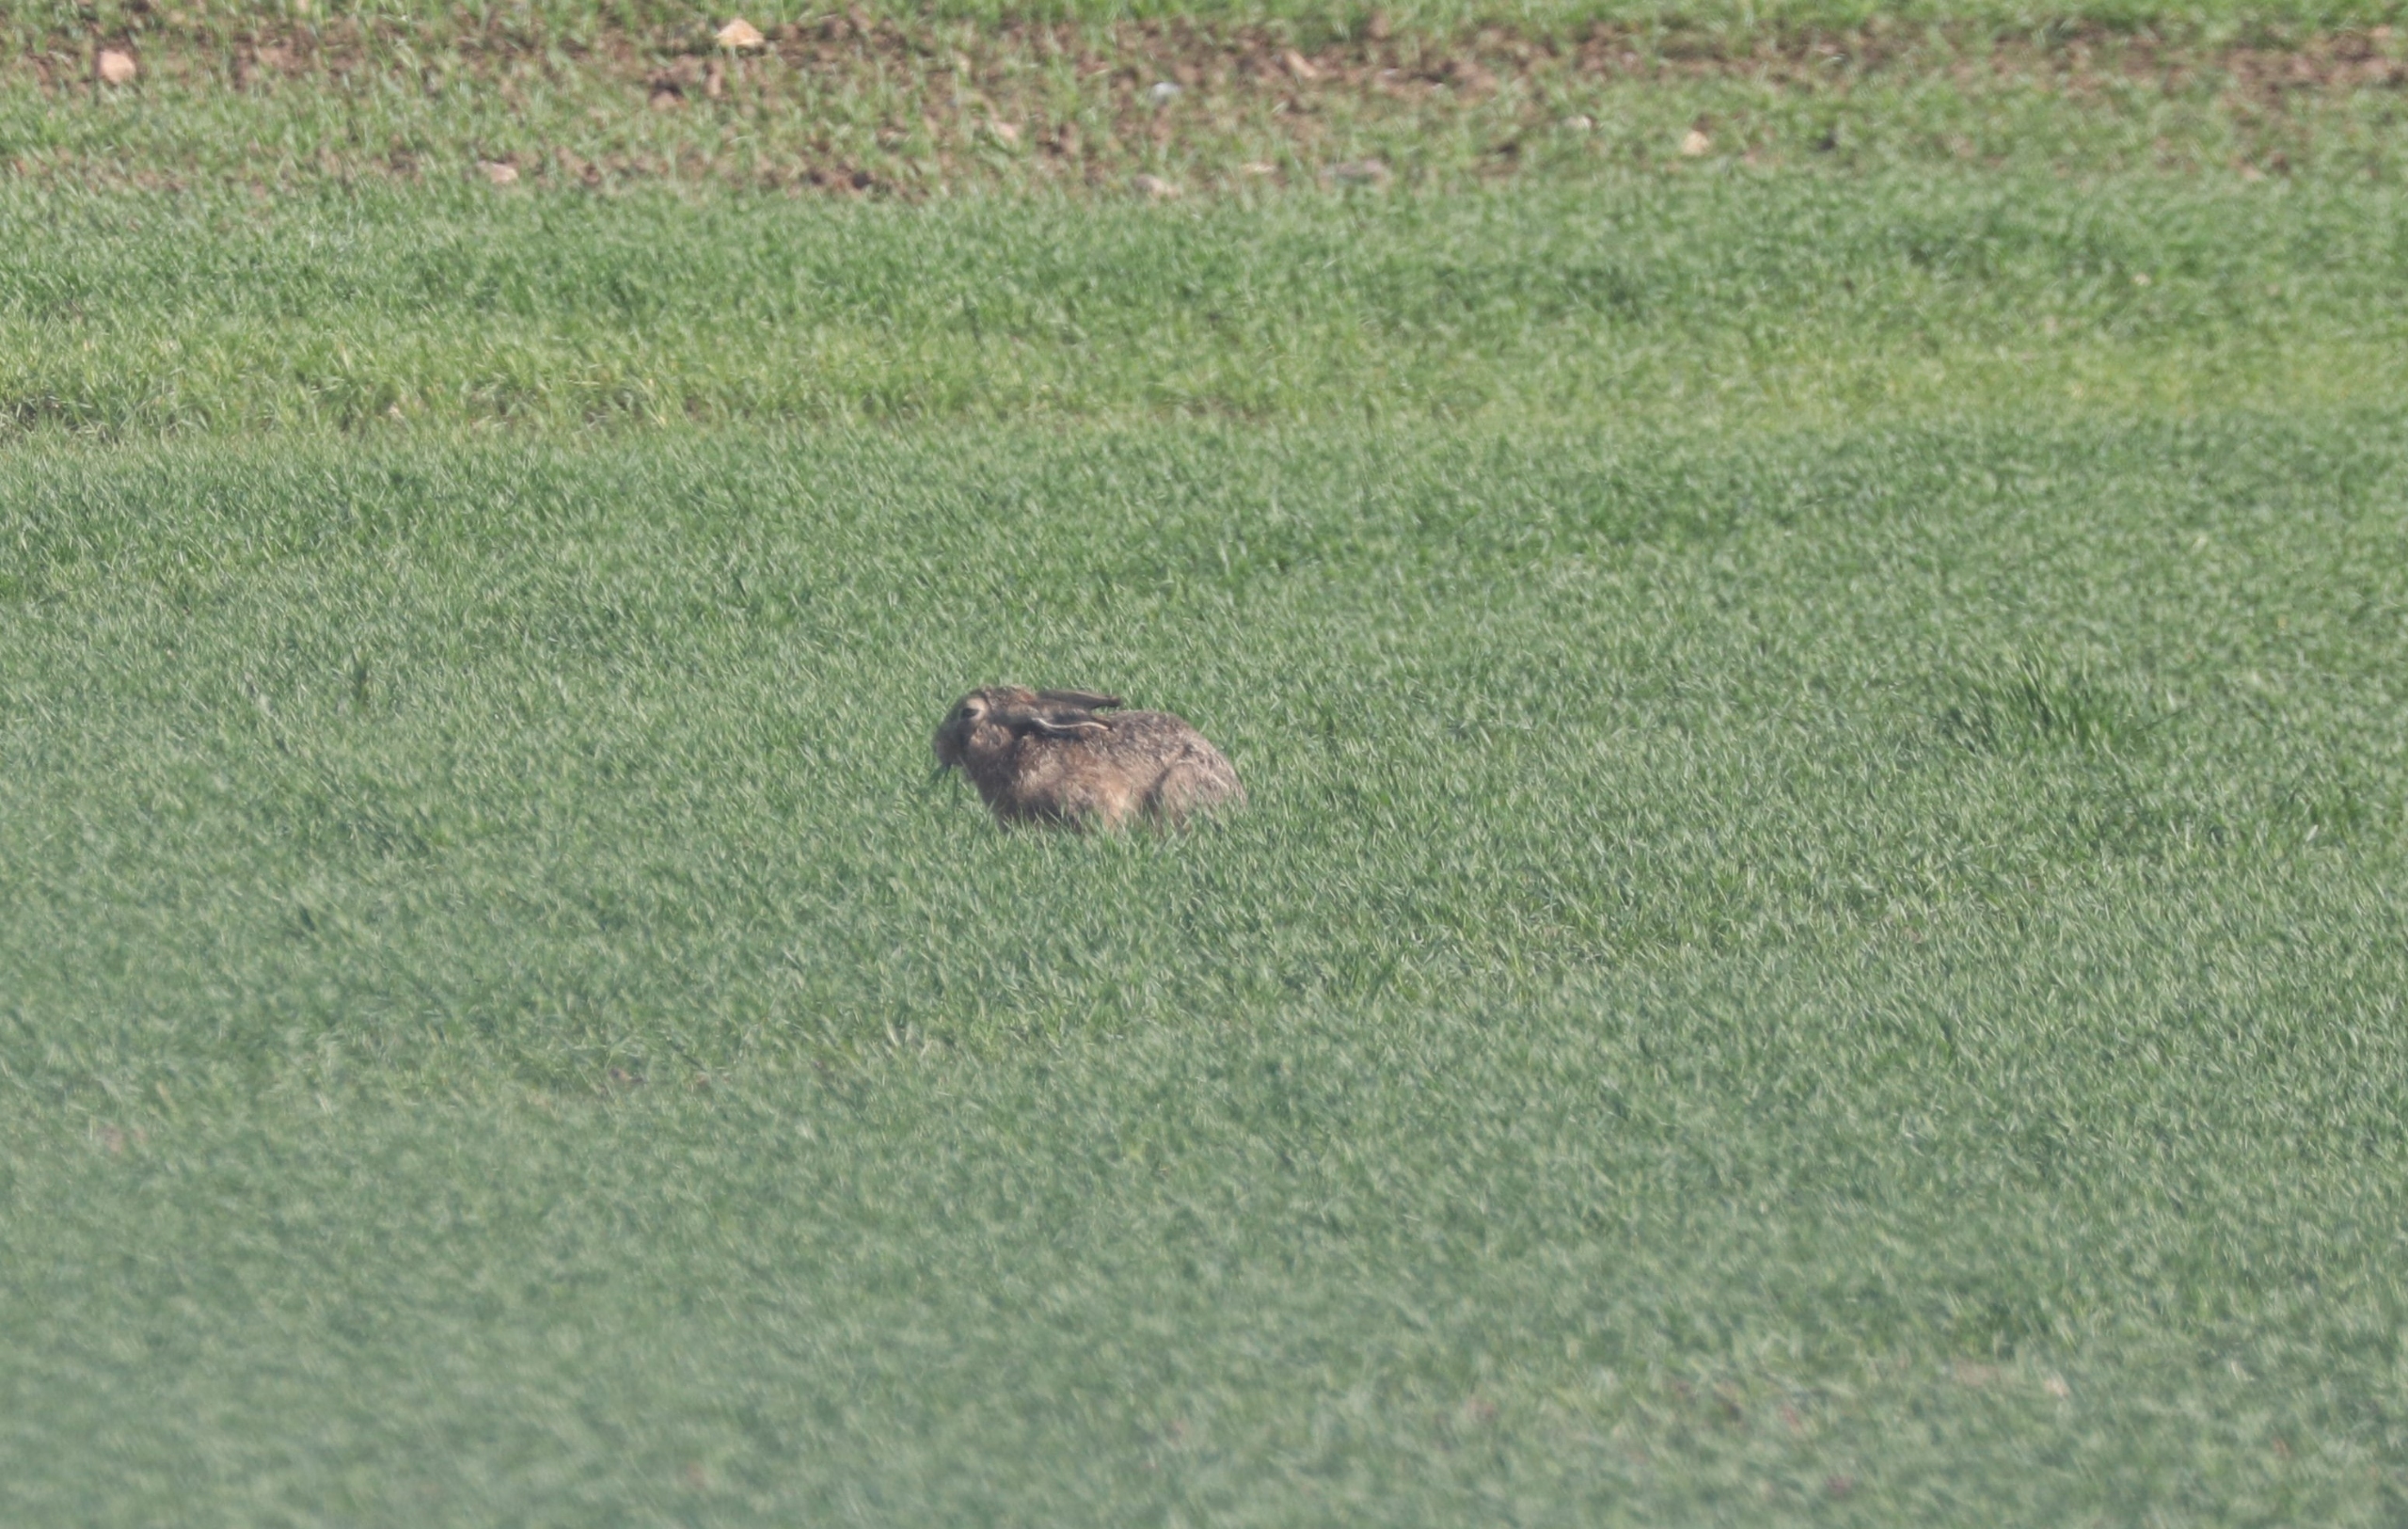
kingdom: Animalia
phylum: Chordata
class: Mammalia
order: Lagomorpha
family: Leporidae
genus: Lepus
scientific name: Lepus europaeus
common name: Hare
